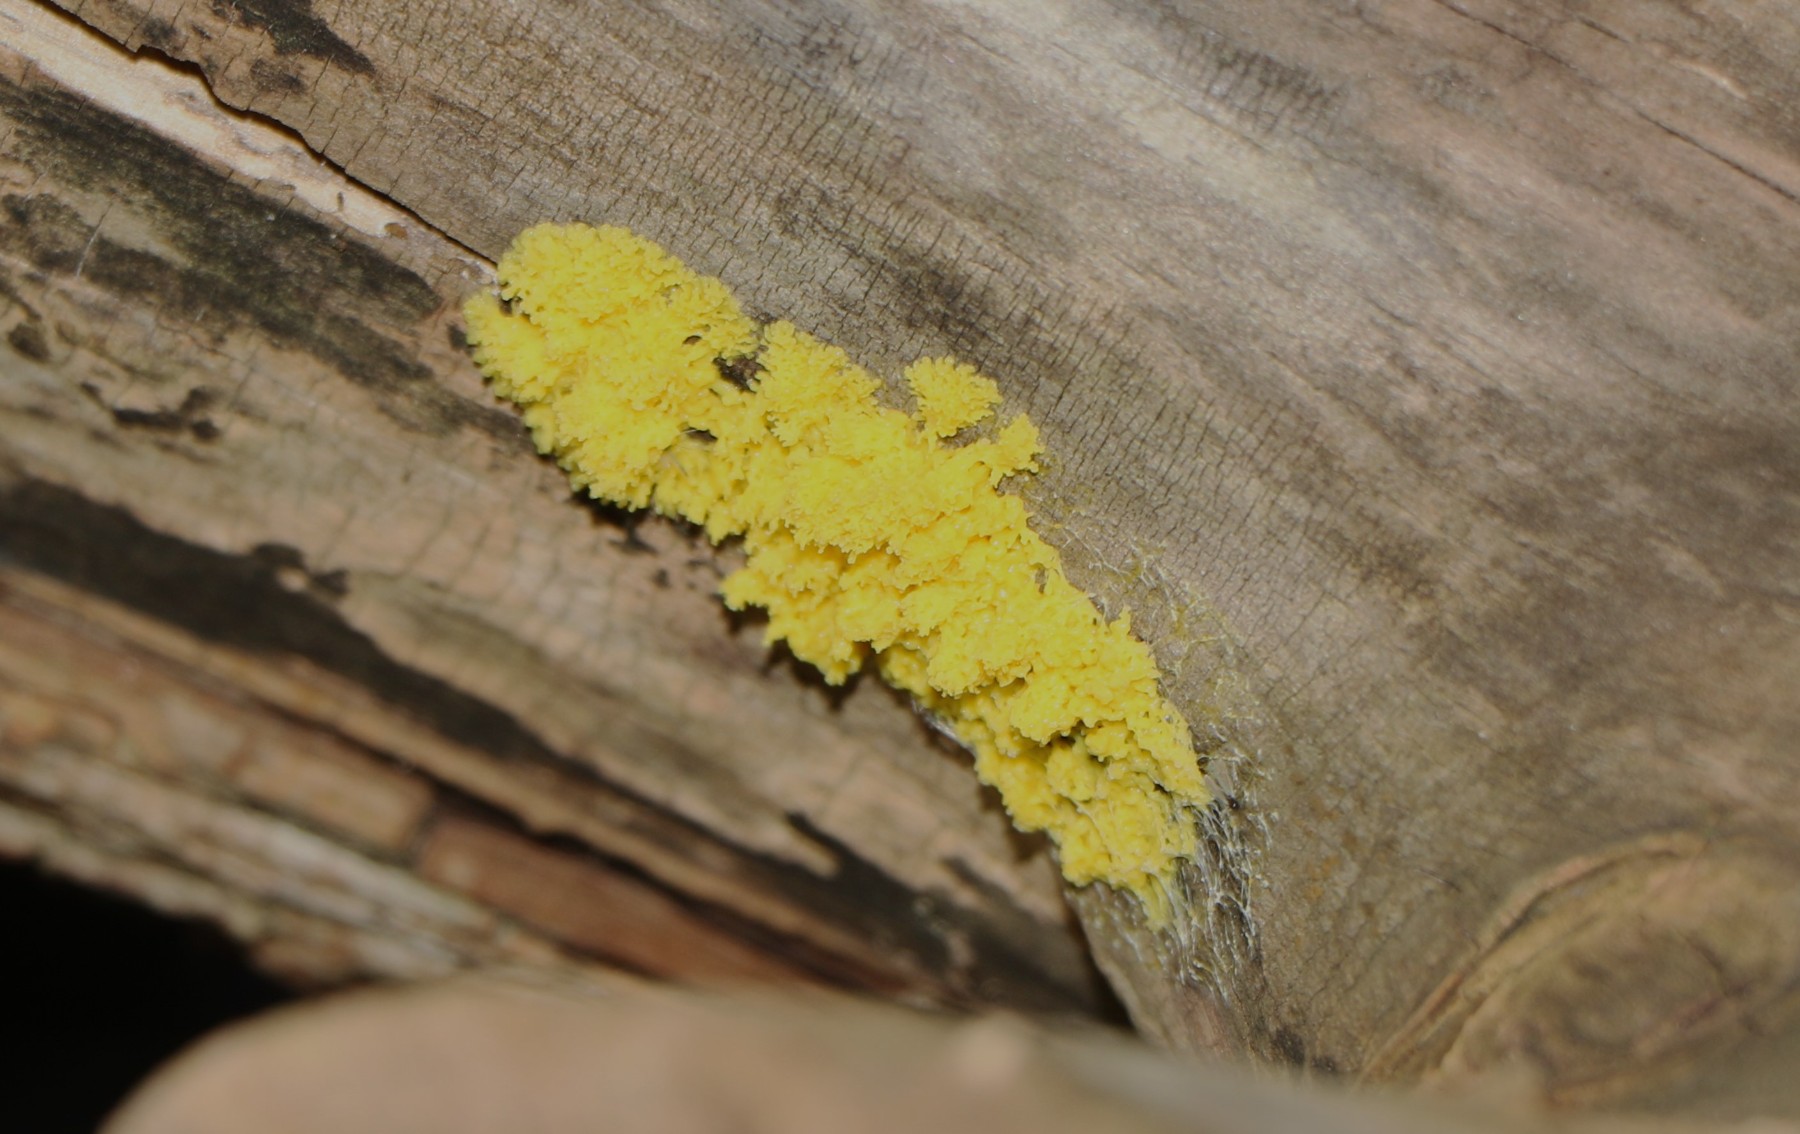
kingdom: Protozoa
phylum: Mycetozoa
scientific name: Mycetozoa
